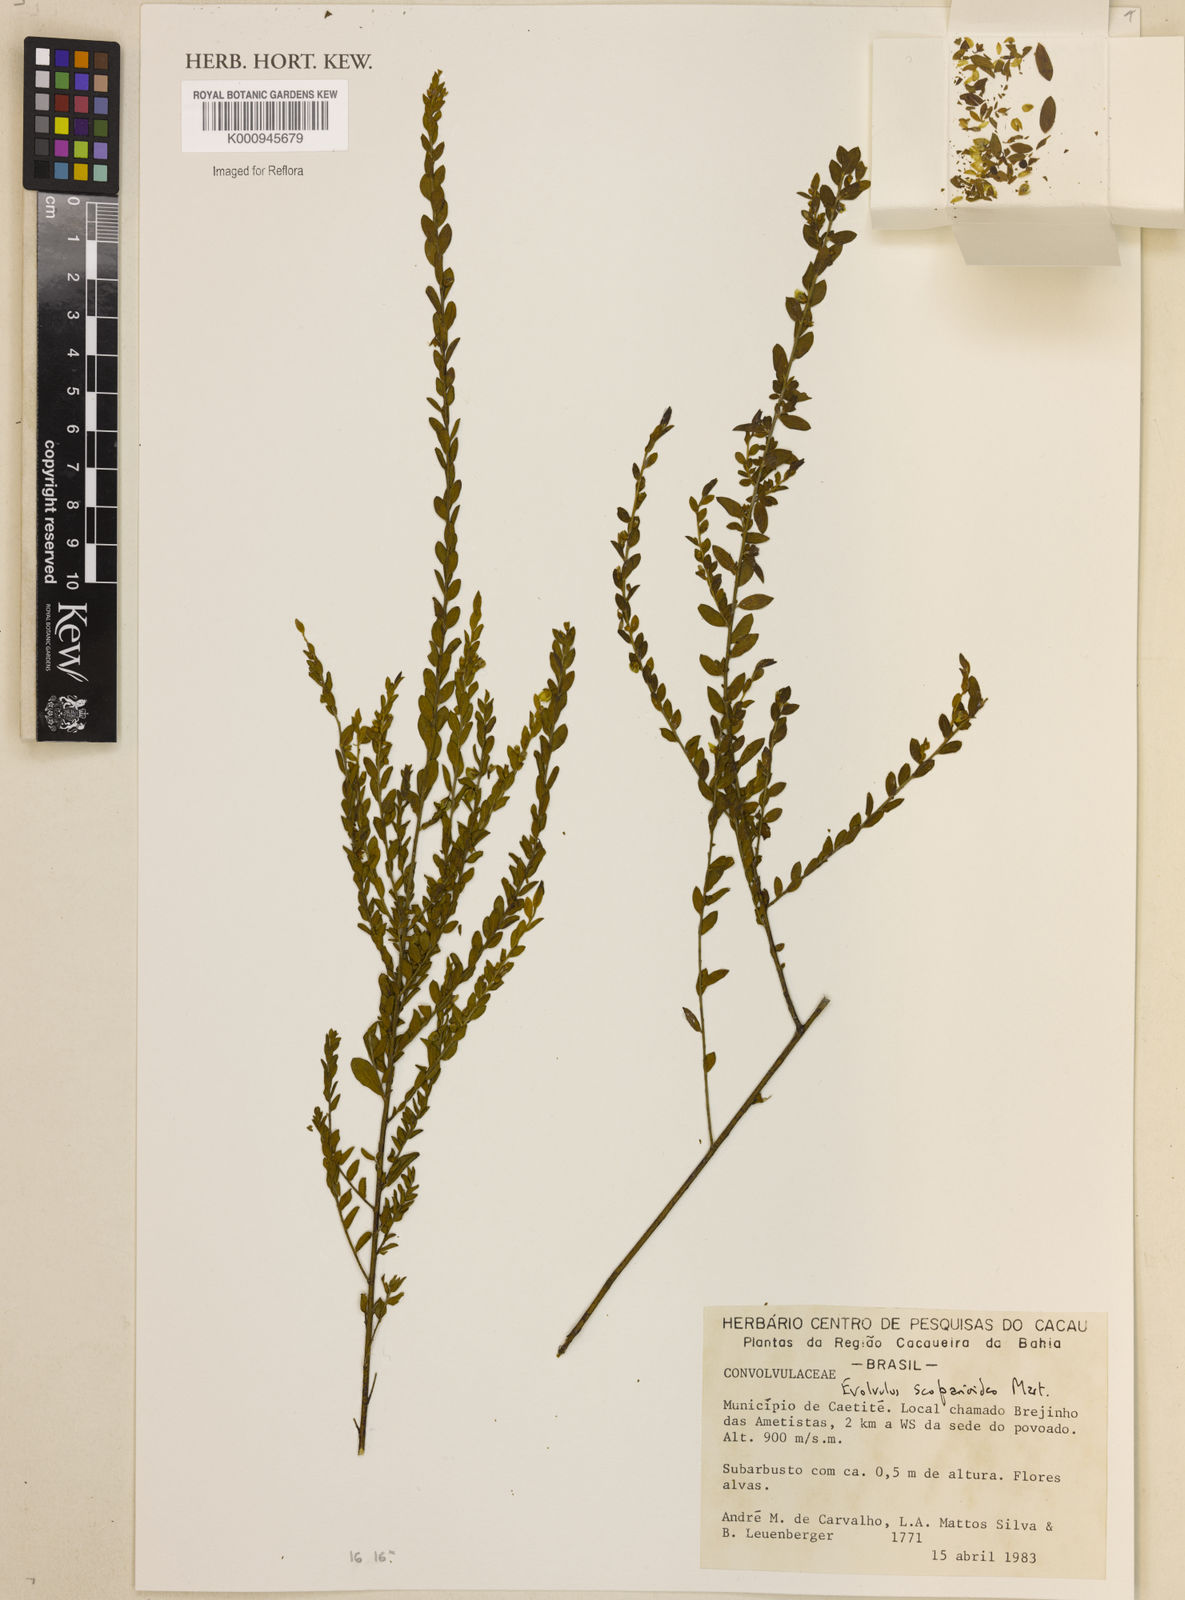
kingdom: Plantae
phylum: Tracheophyta
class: Magnoliopsida
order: Solanales
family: Convolvulaceae
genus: Evolvulus
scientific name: Evolvulus scoparioides
